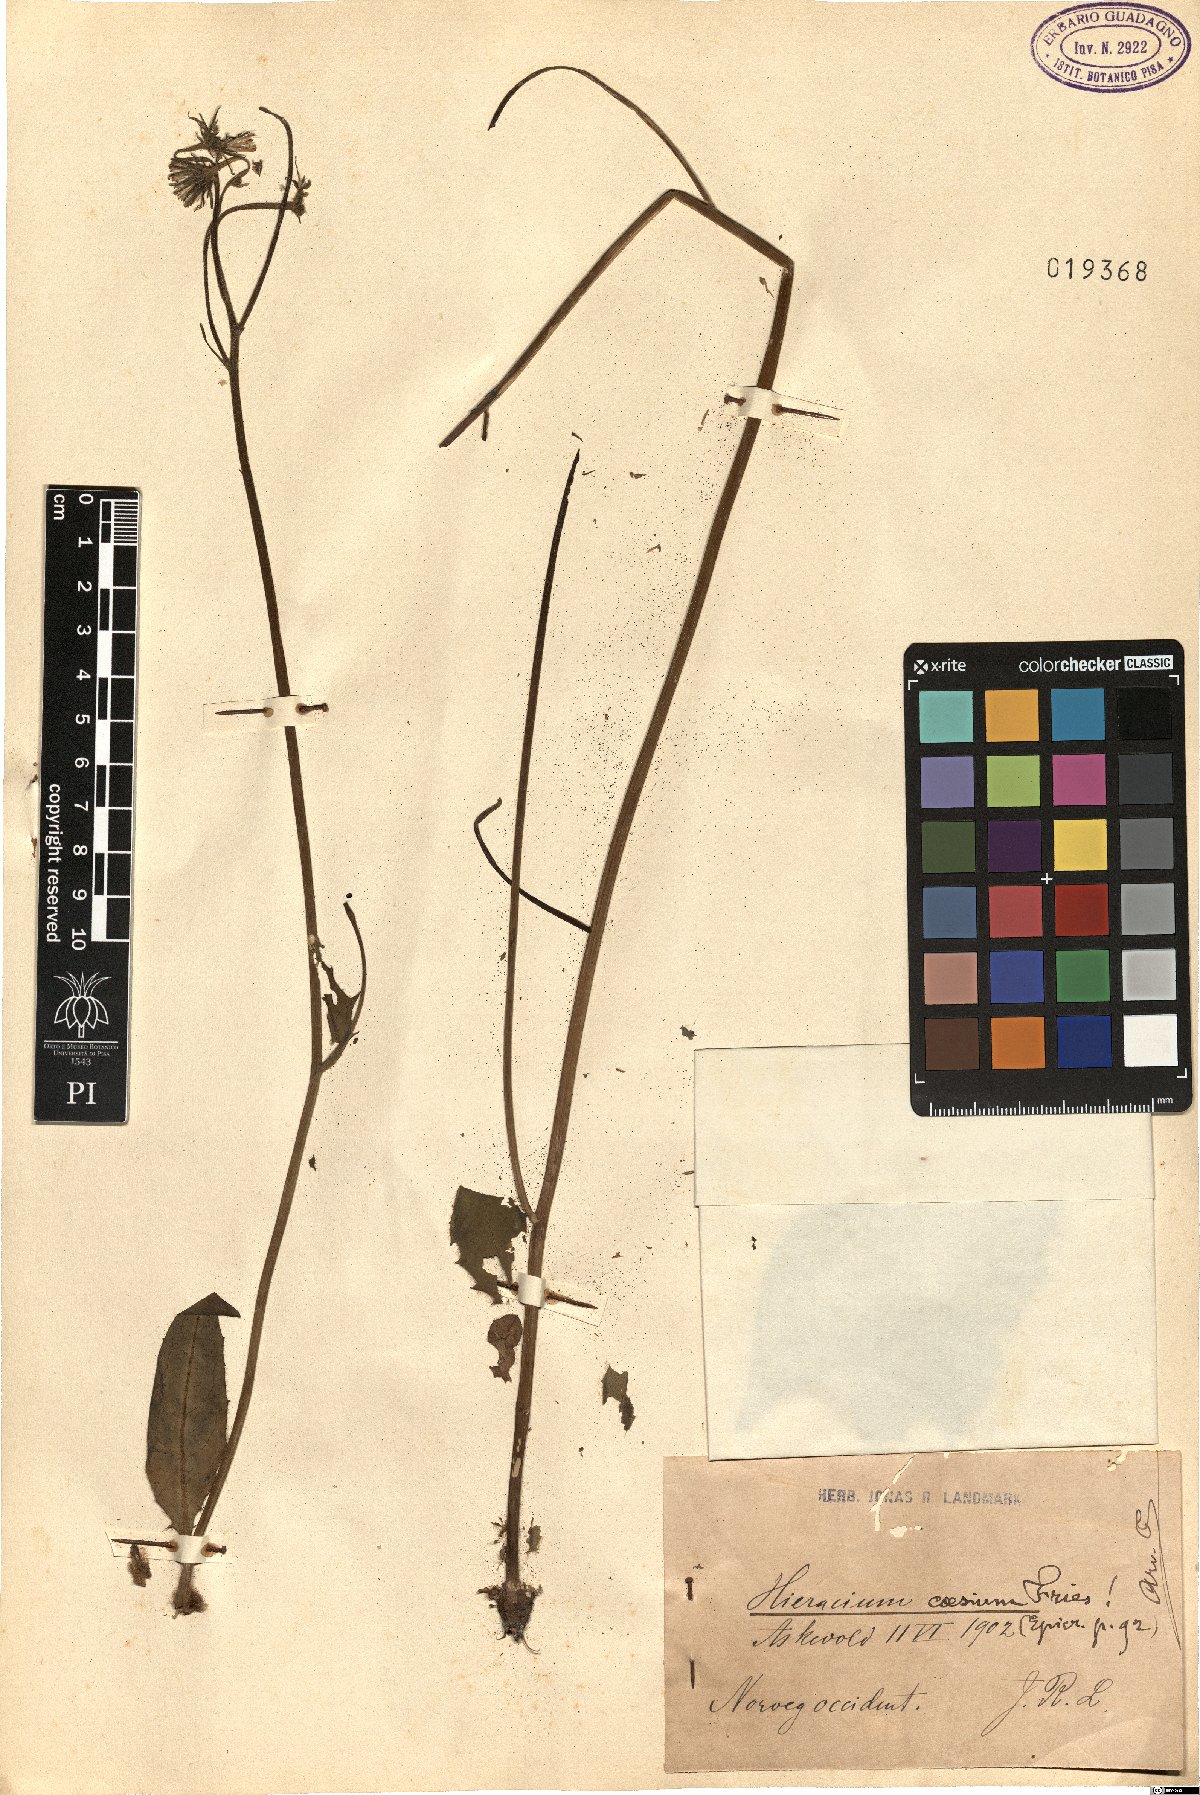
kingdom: Plantae
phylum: Tracheophyta
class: Magnoliopsida
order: Asterales
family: Asteraceae
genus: Hieracium
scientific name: Hieracium caesium
